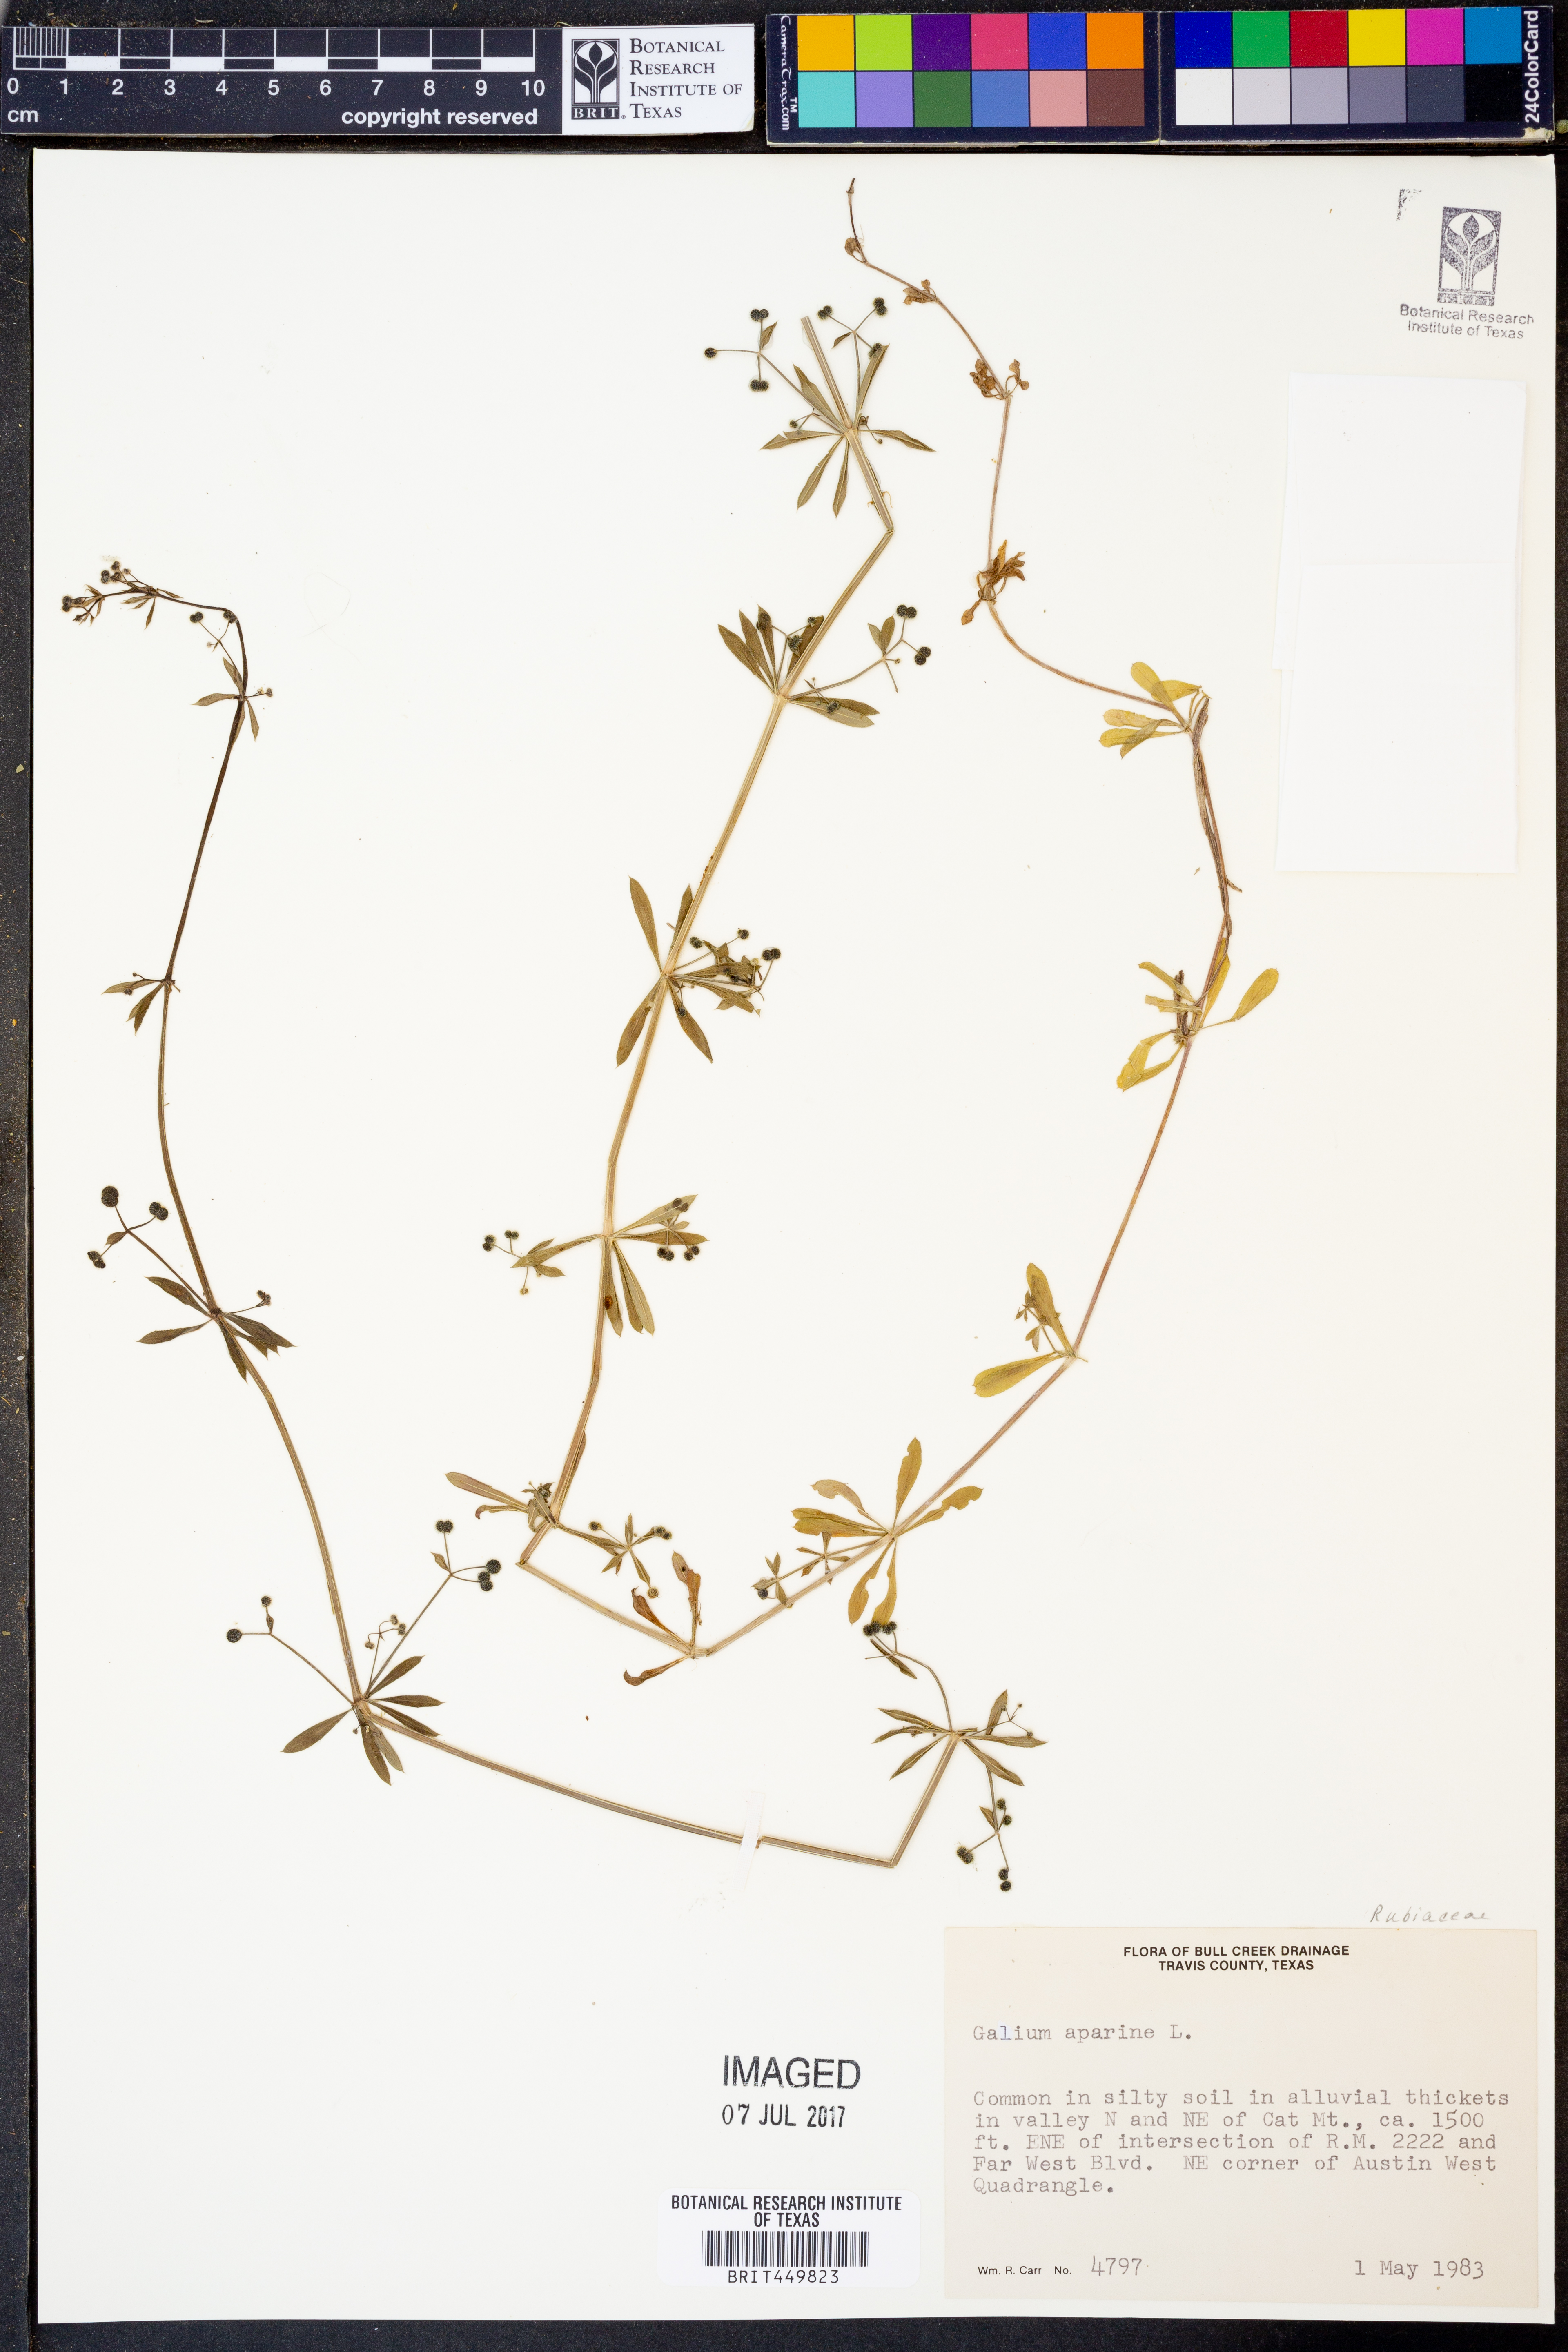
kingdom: Plantae
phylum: Tracheophyta
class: Magnoliopsida
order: Gentianales
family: Rubiaceae
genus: Galium
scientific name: Galium aparine
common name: Cleavers
